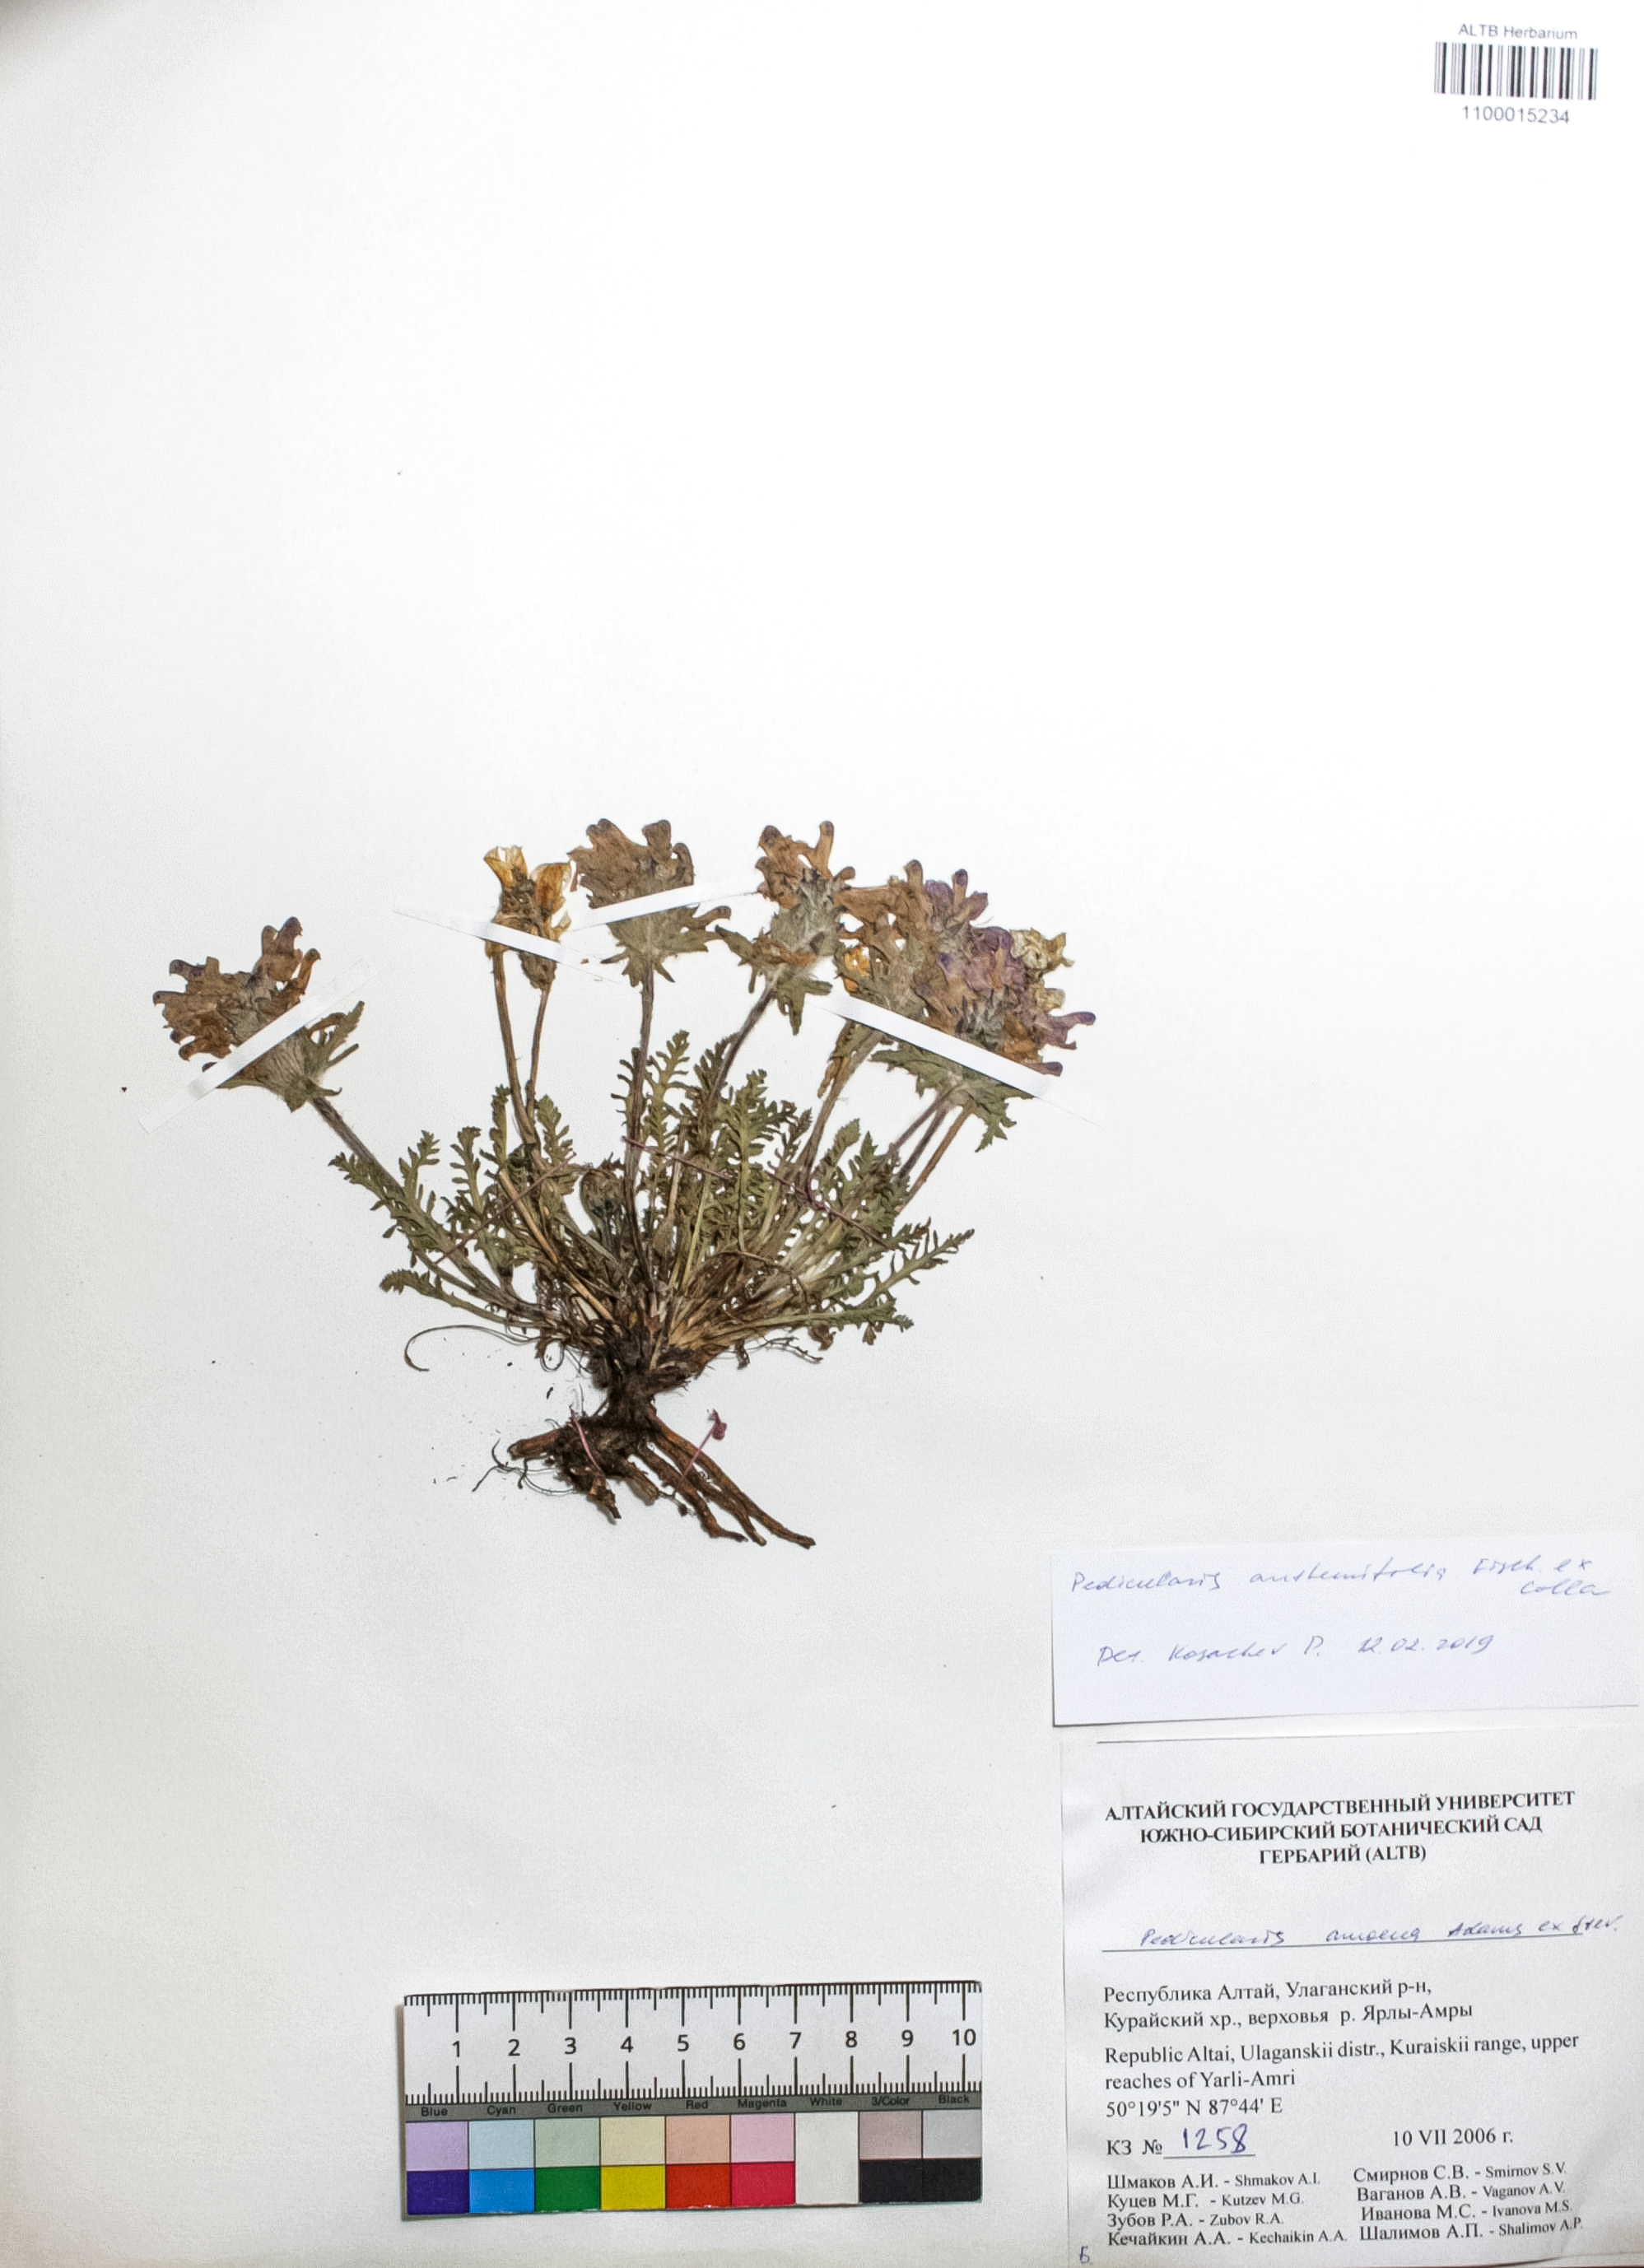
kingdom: Plantae
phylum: Tracheophyta
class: Magnoliopsida
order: Lamiales
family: Orobanchaceae
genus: Pedicularis
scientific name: Pedicularis anthemifolia
